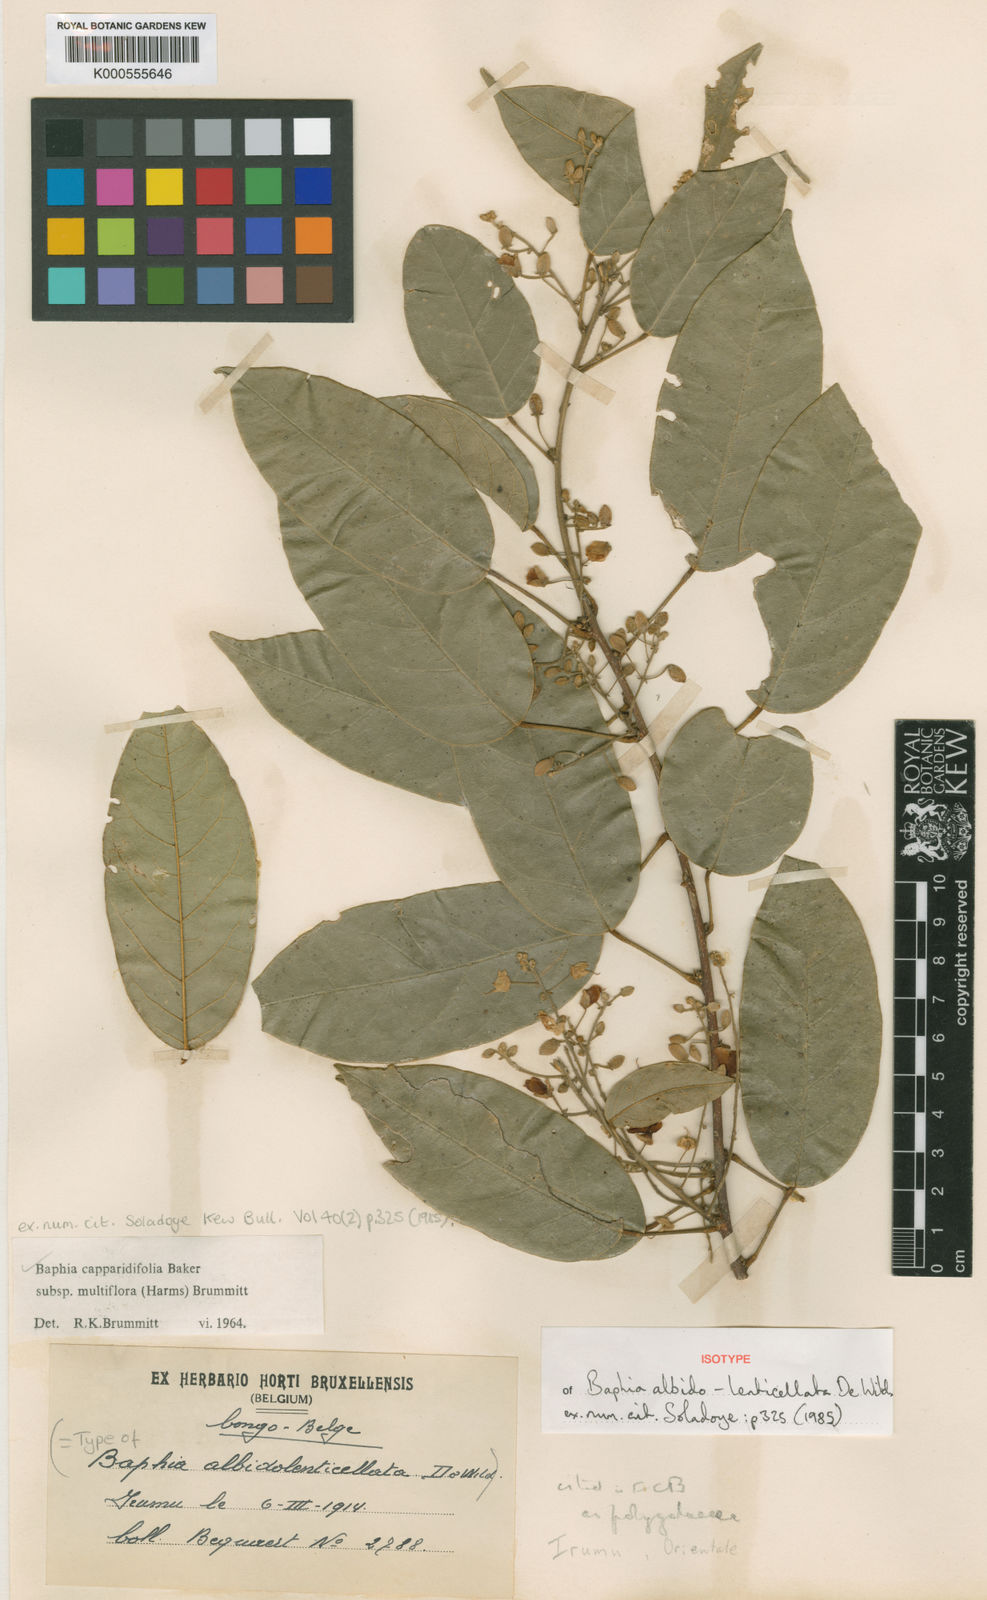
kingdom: Plantae
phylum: Tracheophyta
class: Magnoliopsida
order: Fabales
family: Fabaceae
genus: Baphia
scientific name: Baphia capparidifolia
